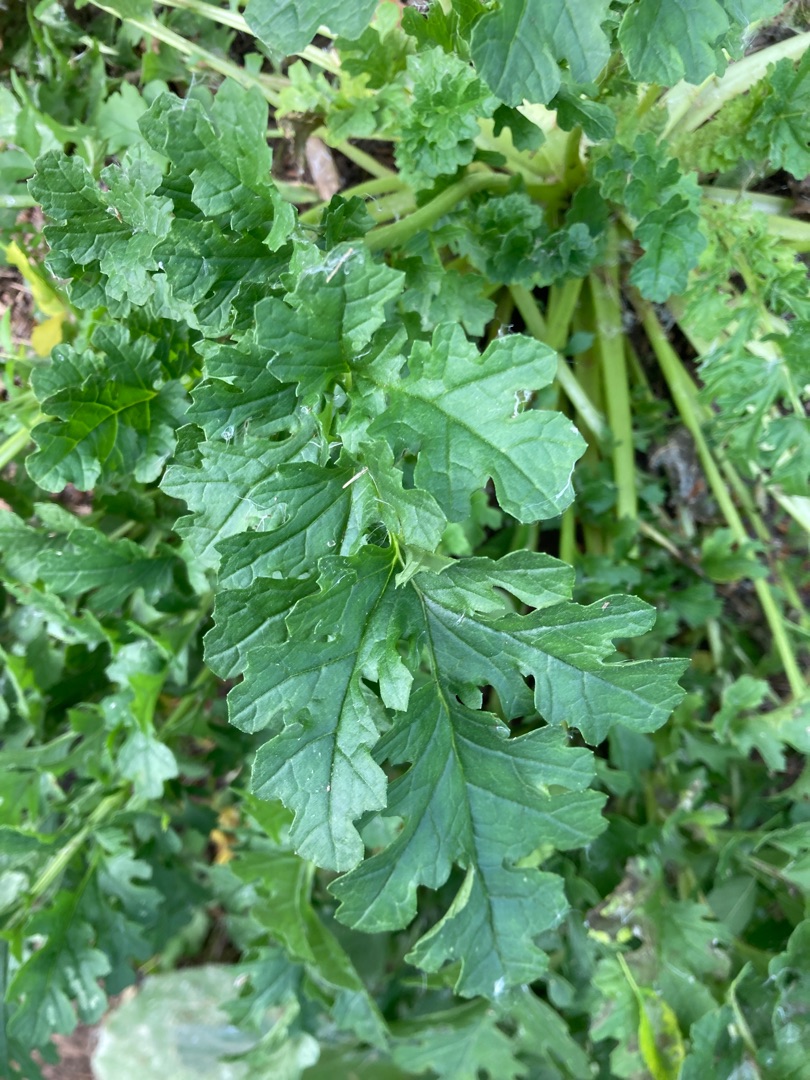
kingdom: Plantae
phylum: Tracheophyta
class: Magnoliopsida
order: Asterales
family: Asteraceae
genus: Jacobaea
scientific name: Jacobaea vulgaris
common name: Eng-brandbæger
